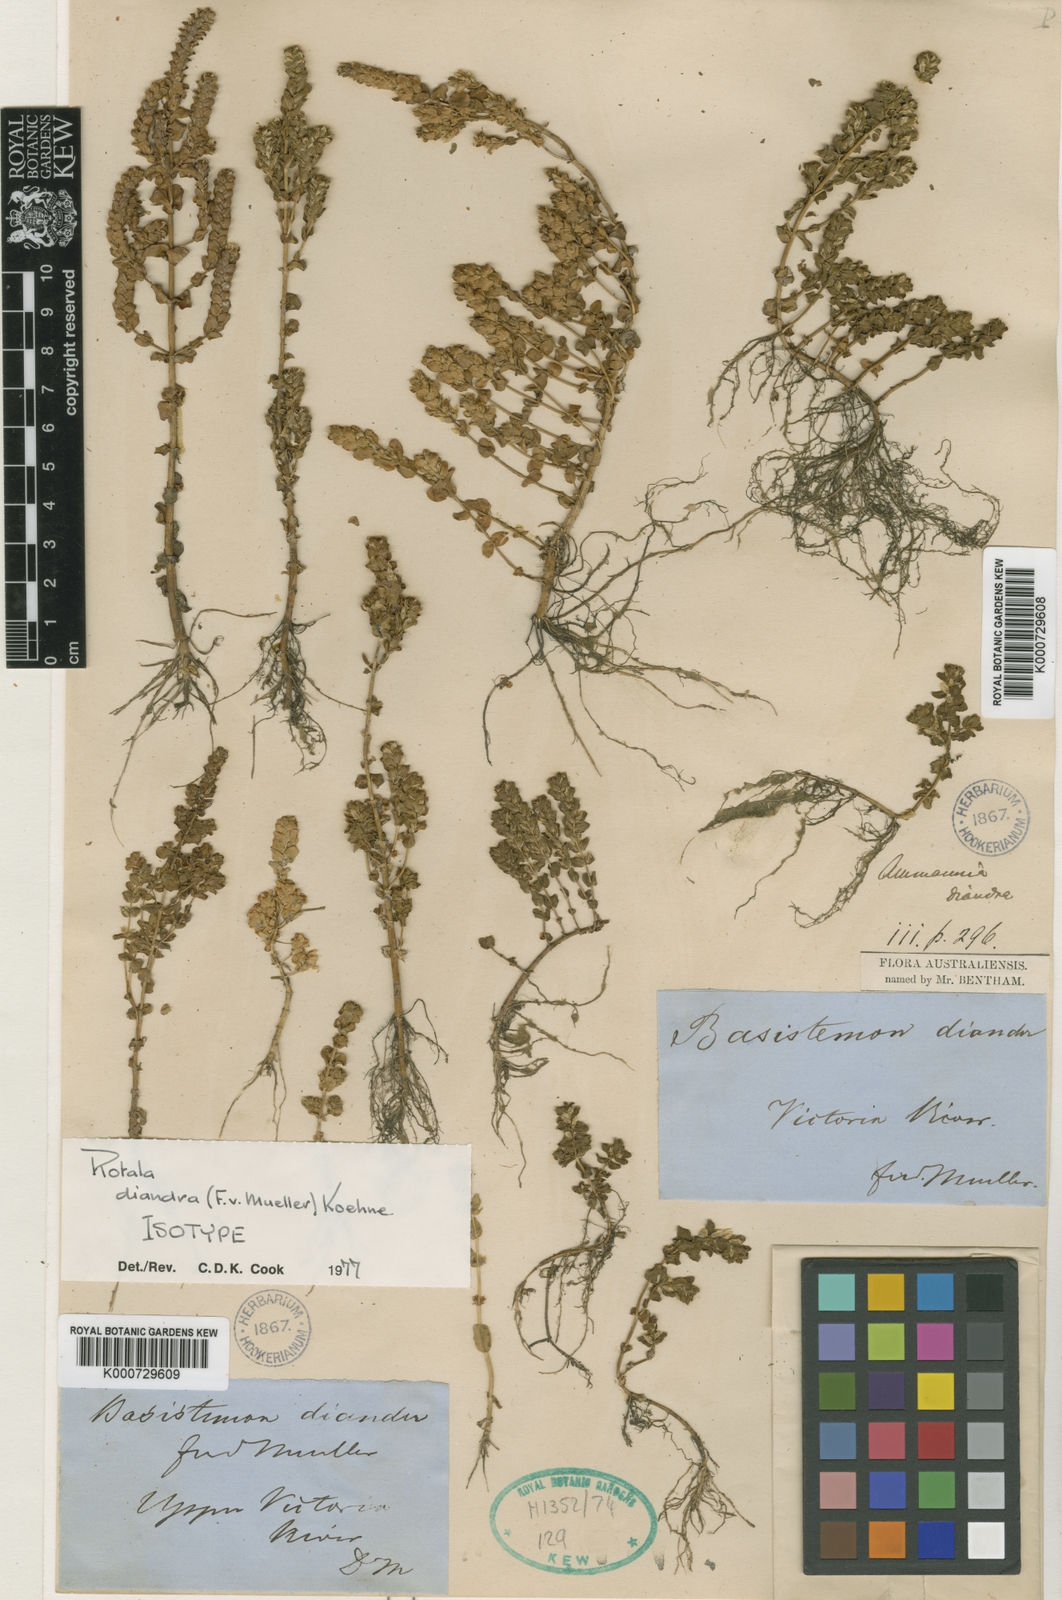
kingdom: Plantae
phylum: Tracheophyta
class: Magnoliopsida
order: Myrtales
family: Lythraceae
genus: Rotala
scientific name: Rotala
